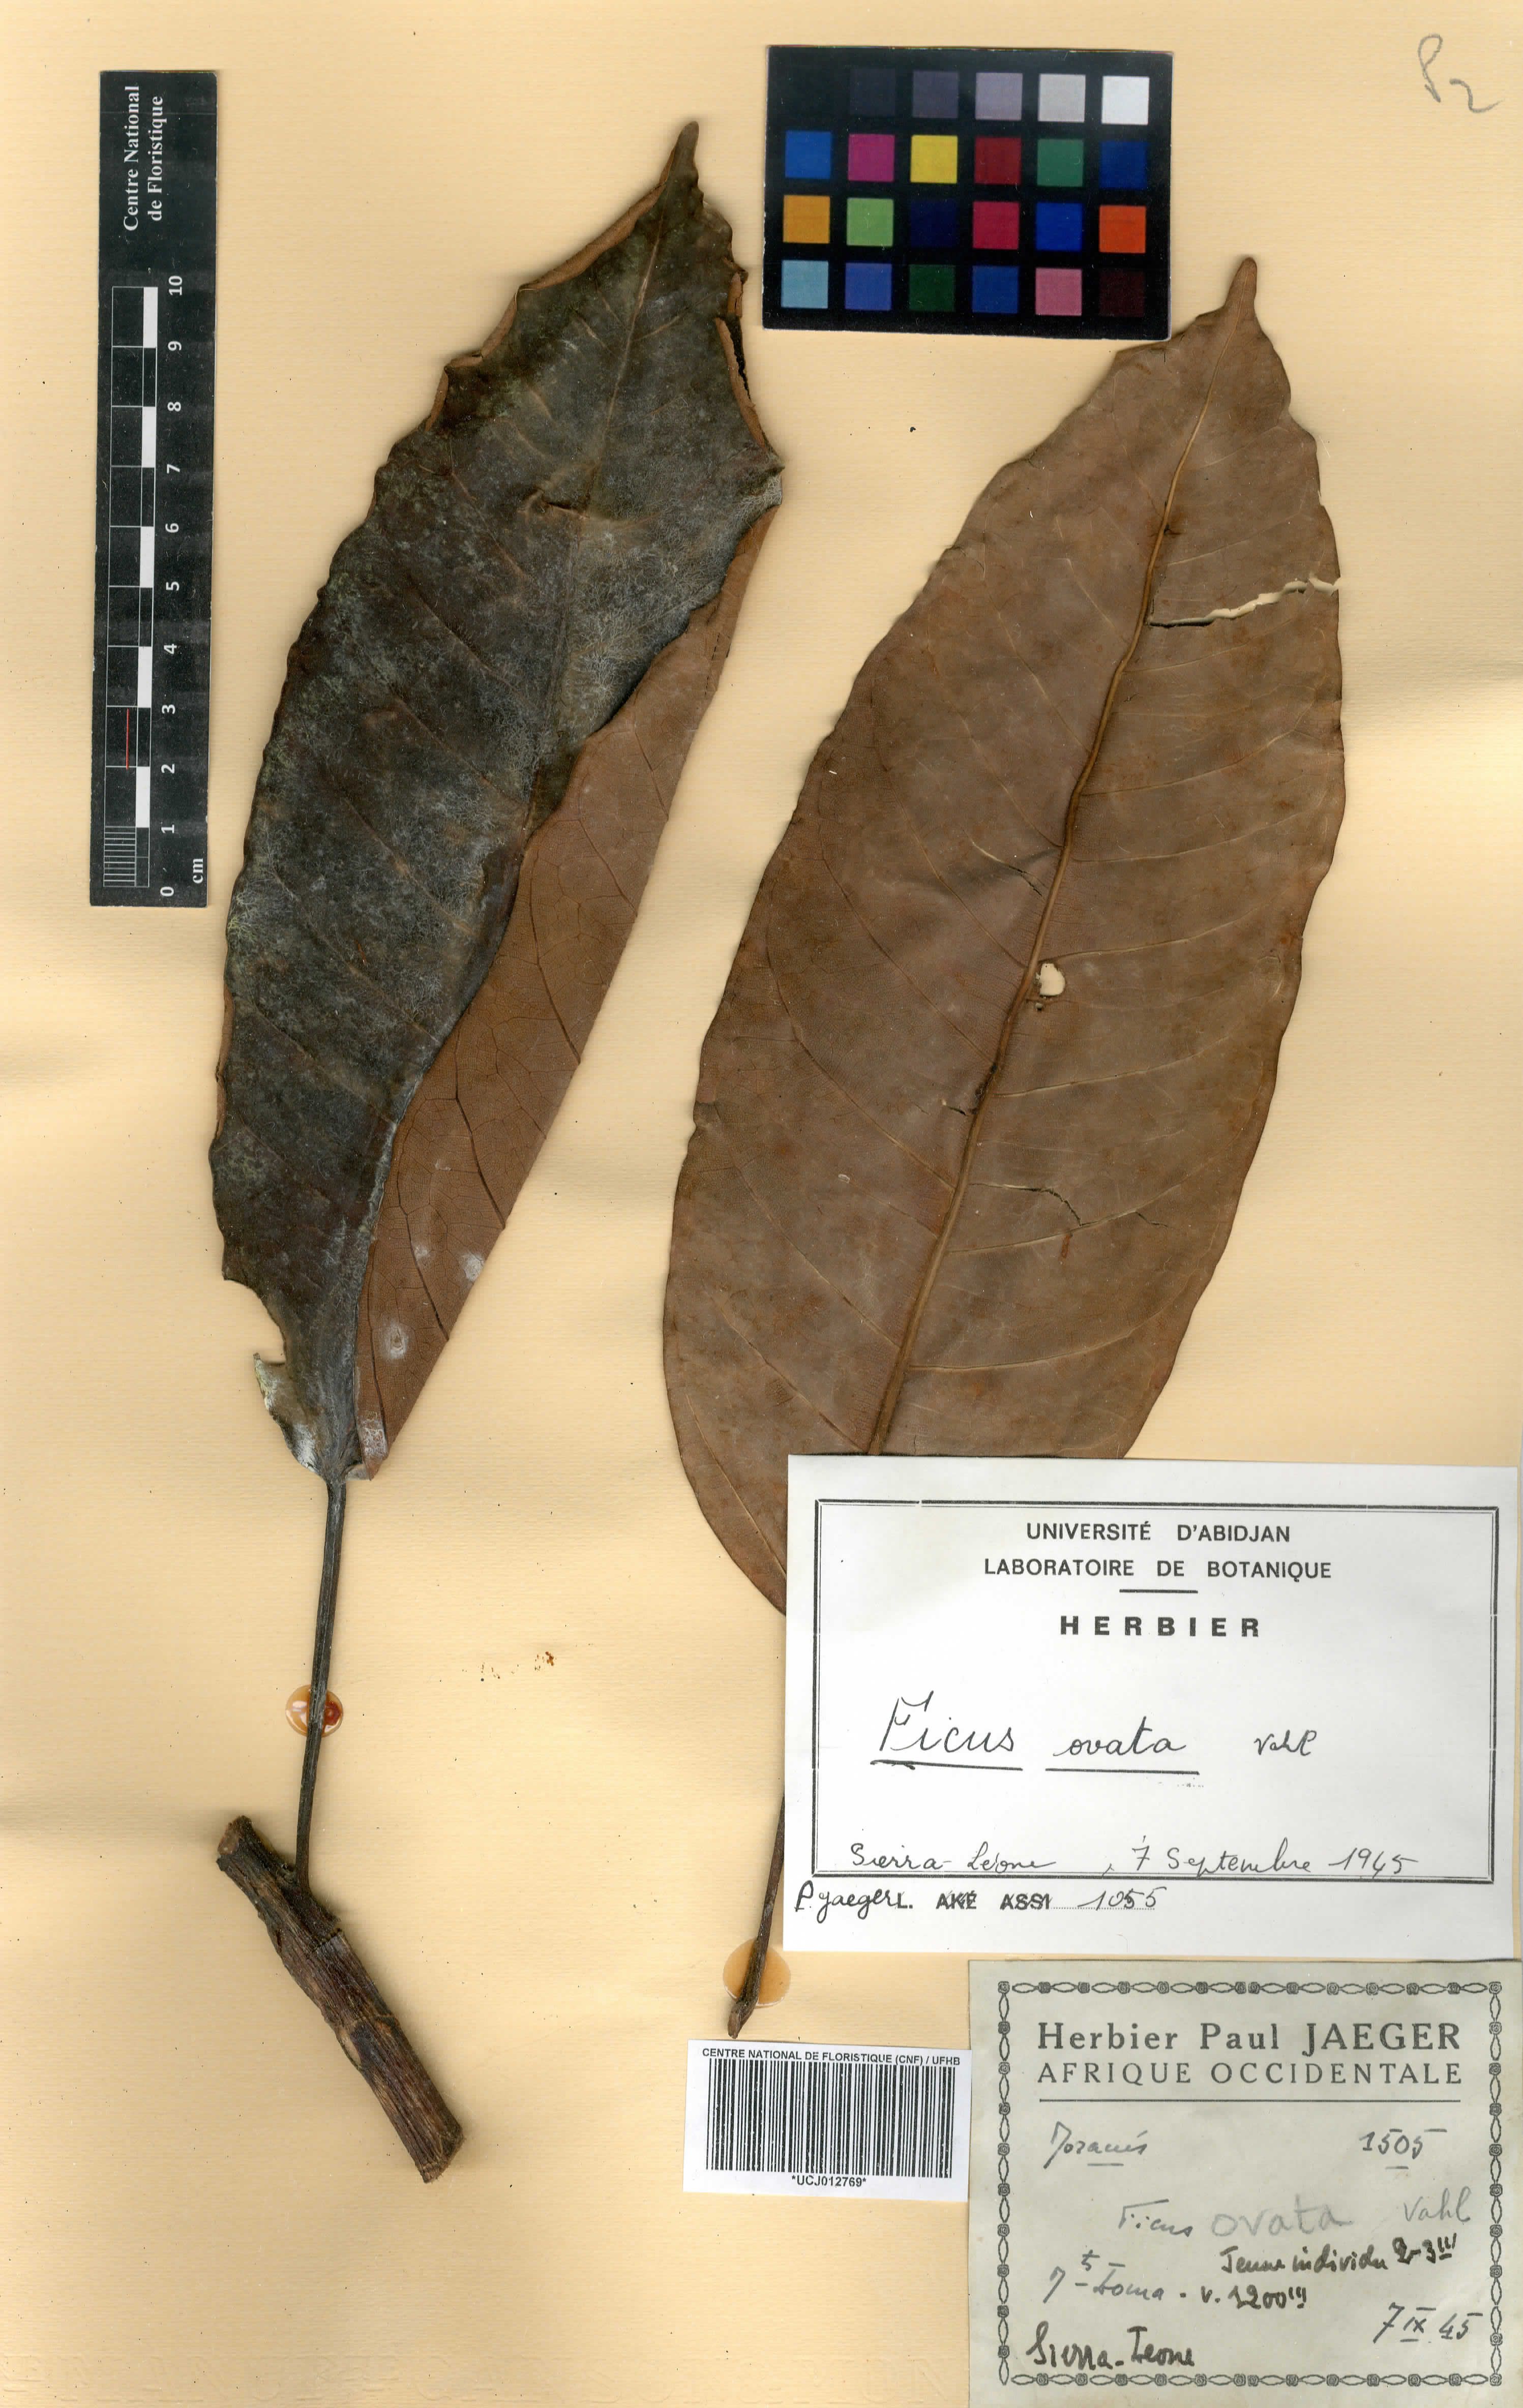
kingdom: Plantae
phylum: Tracheophyta
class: Magnoliopsida
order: Rosales
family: Moraceae
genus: Ficus
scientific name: Ficus laurifolia
